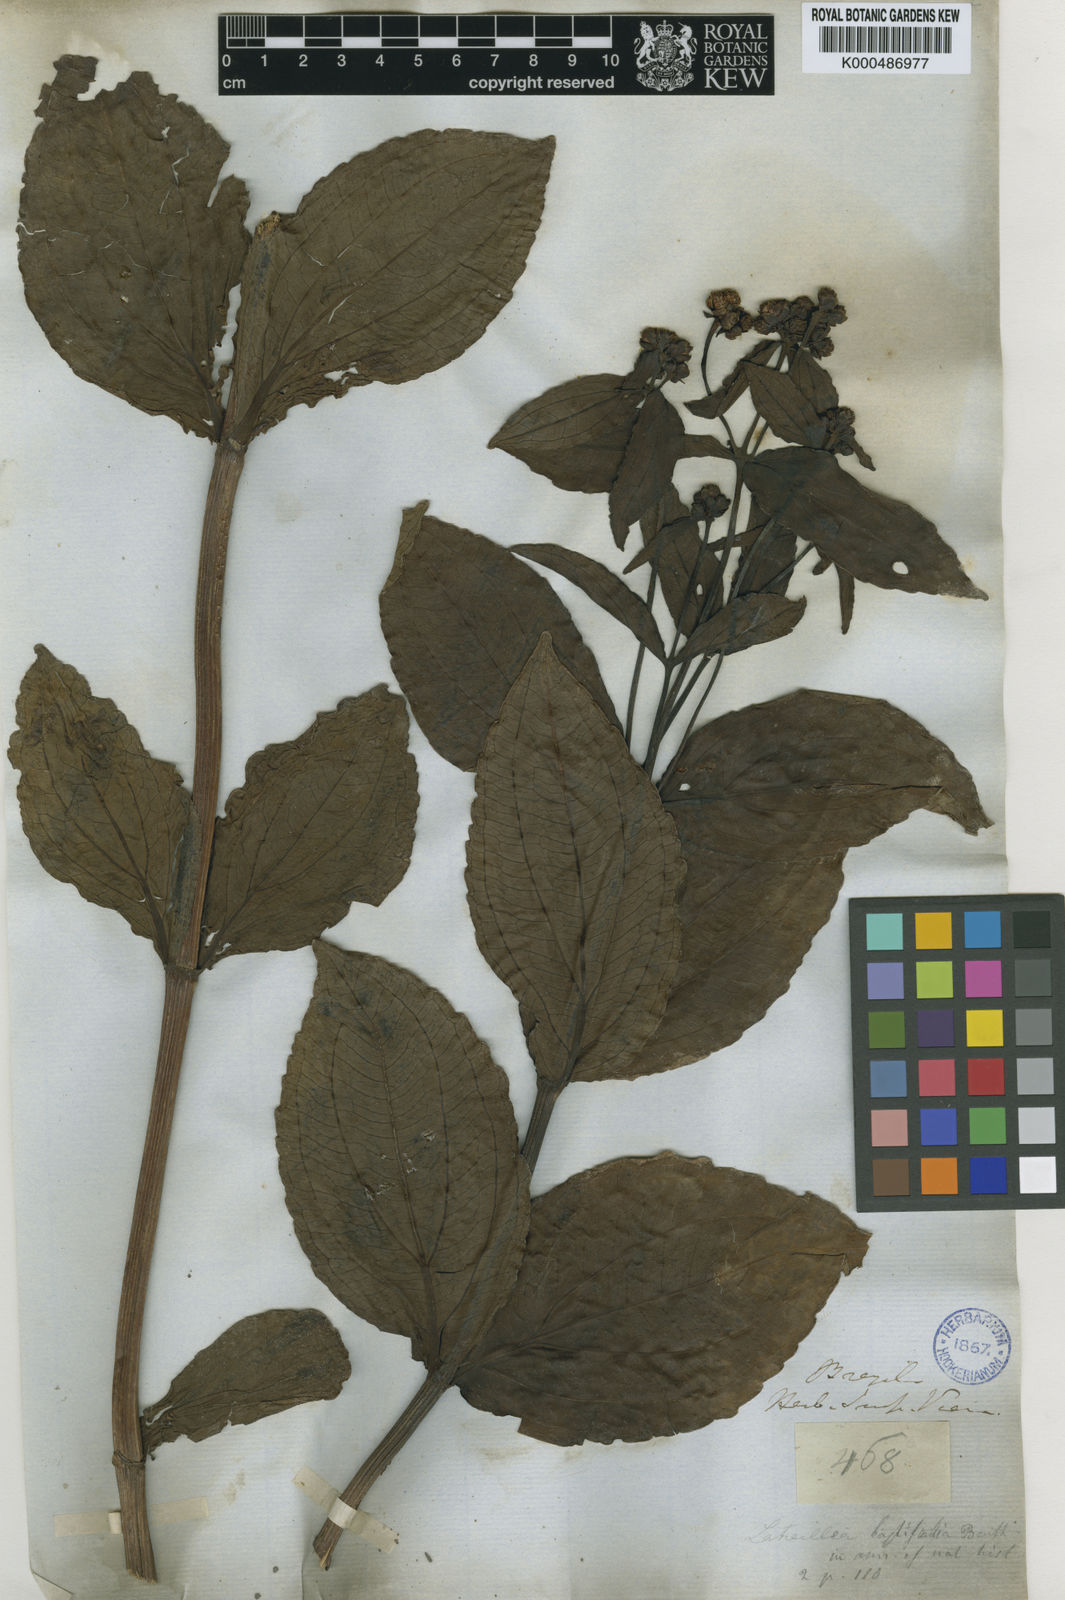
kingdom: Plantae
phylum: Tracheophyta
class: Magnoliopsida
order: Asterales
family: Asteraceae
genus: Ichthyothere
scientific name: Ichthyothere terminalis
